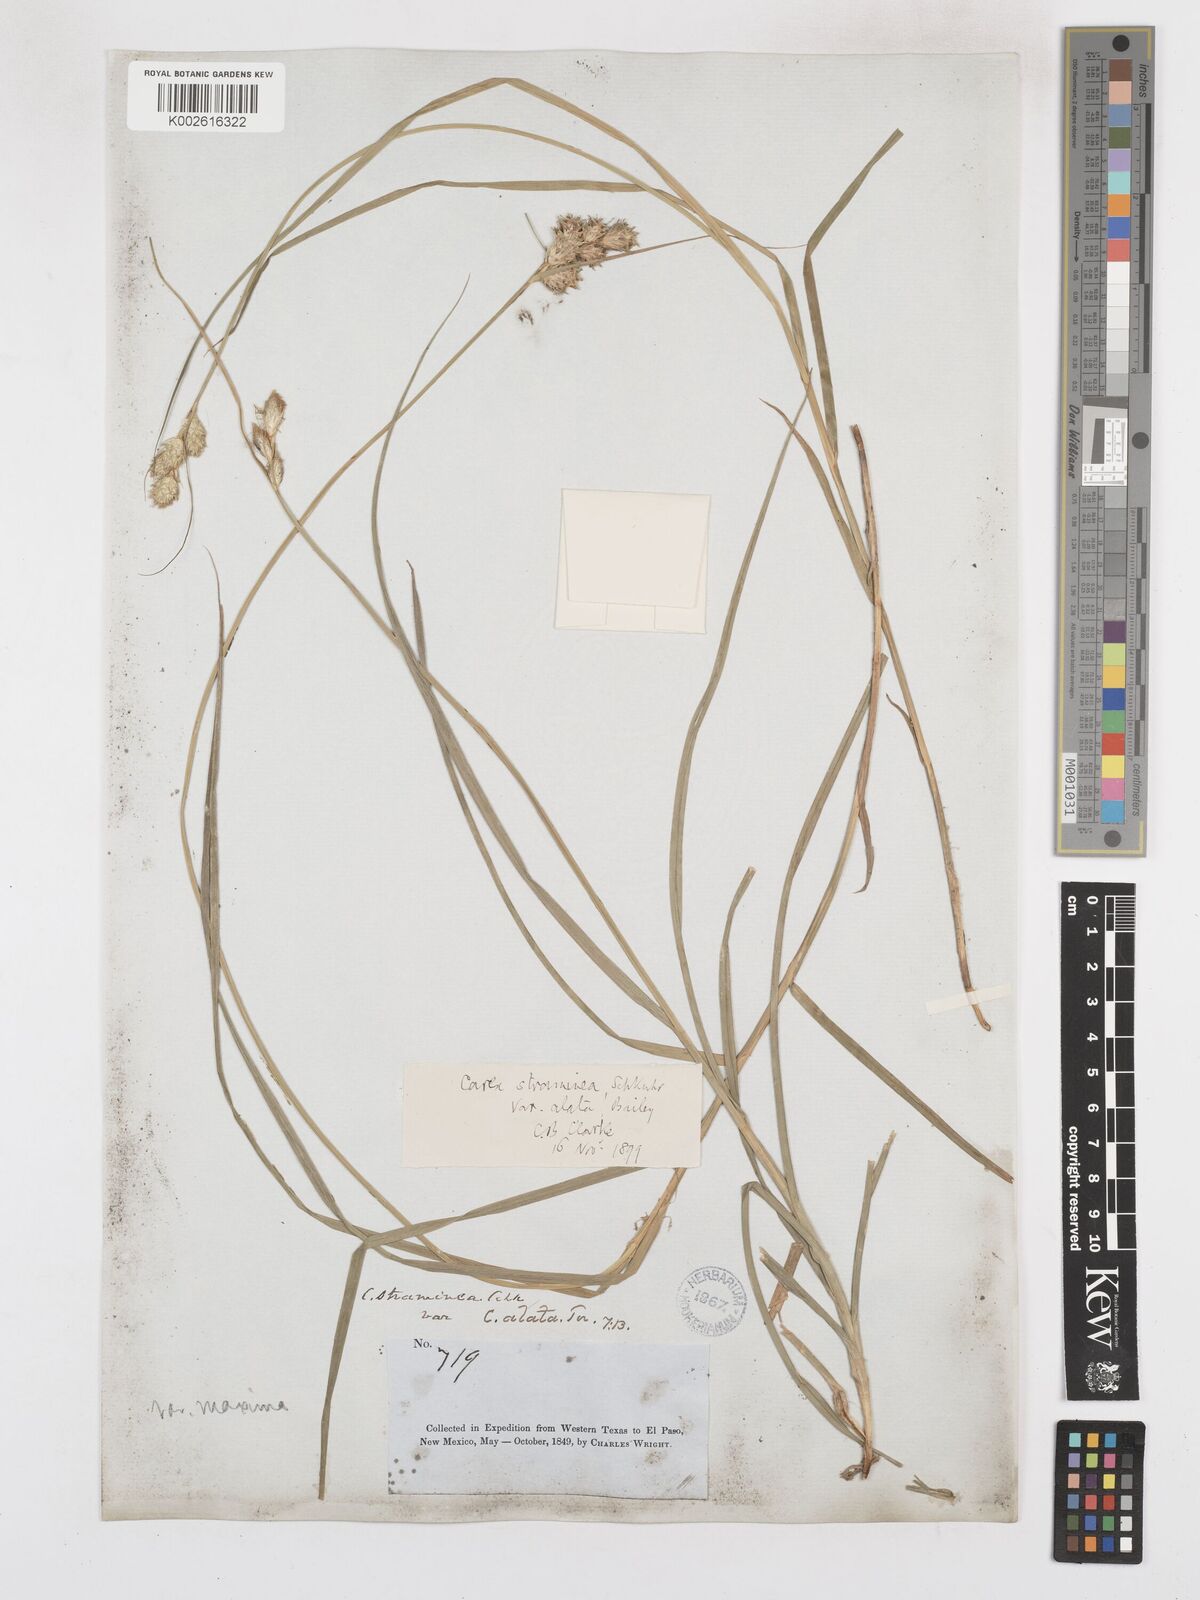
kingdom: Plantae
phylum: Tracheophyta
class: Liliopsida
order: Poales
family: Cyperaceae
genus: Carex
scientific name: Carex alata
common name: Broad-winged sedge
